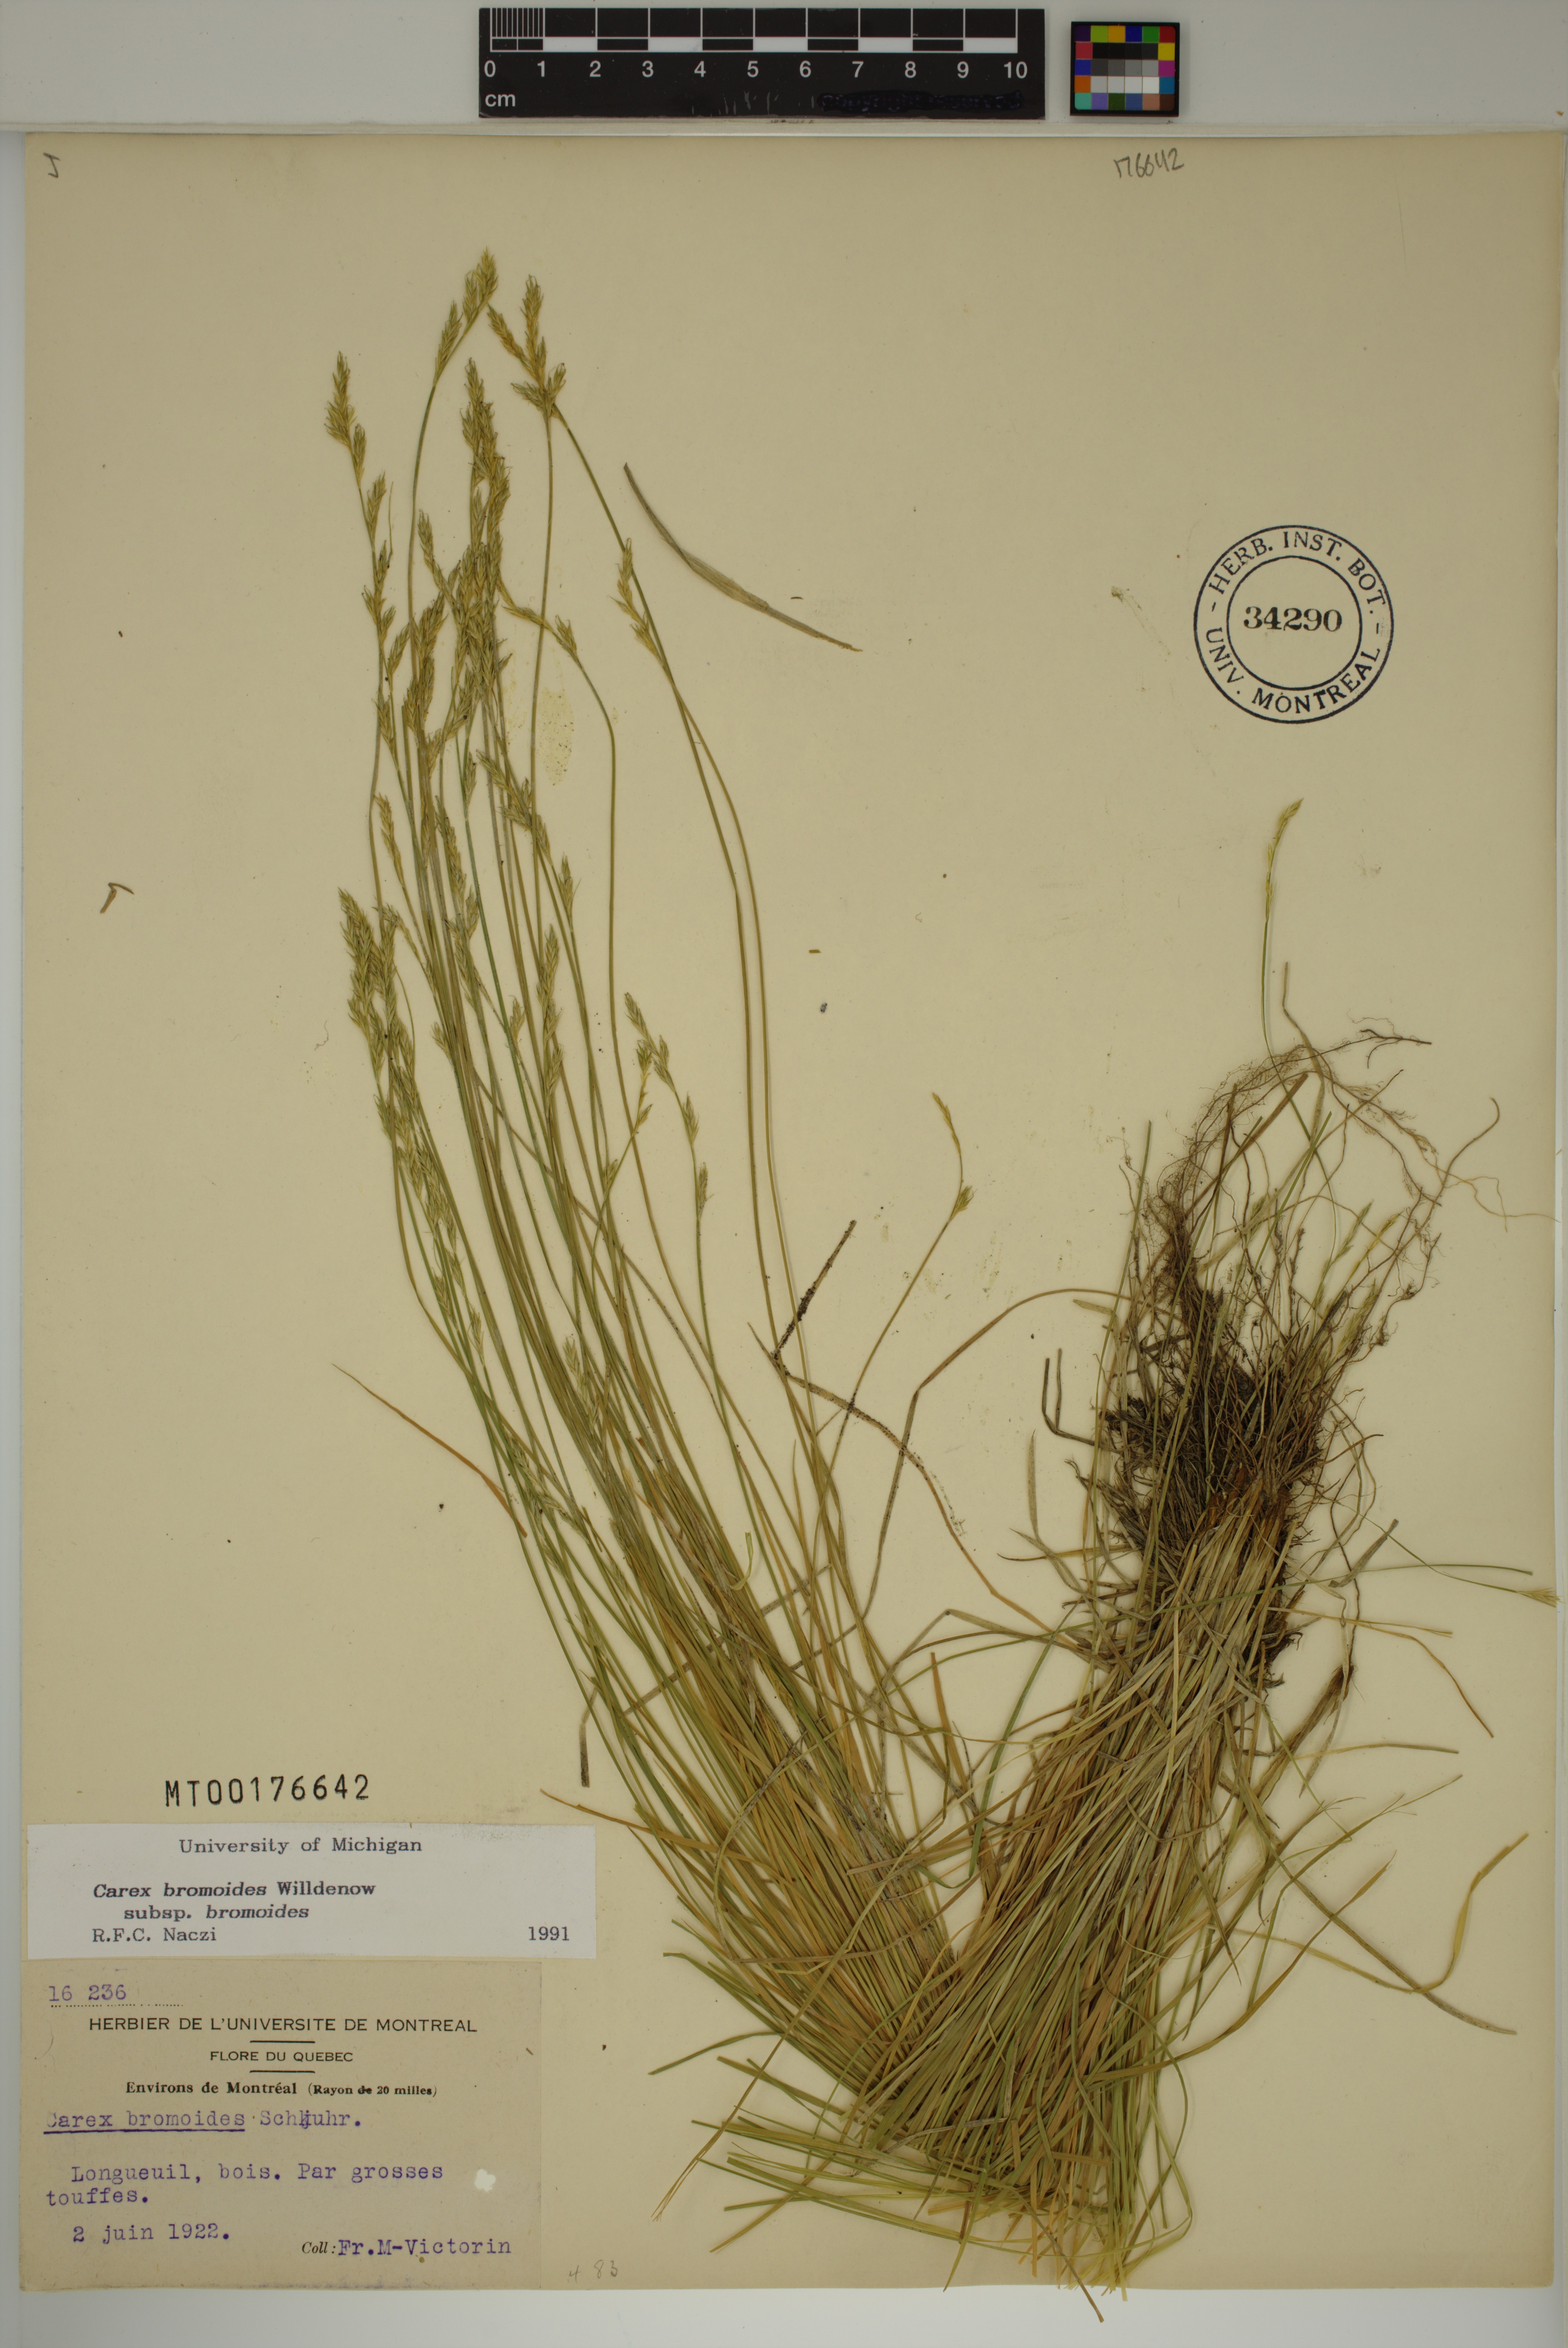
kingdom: Plantae
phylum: Tracheophyta
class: Liliopsida
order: Poales
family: Cyperaceae
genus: Carex
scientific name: Carex bromoides
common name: Brome hummock sedge
